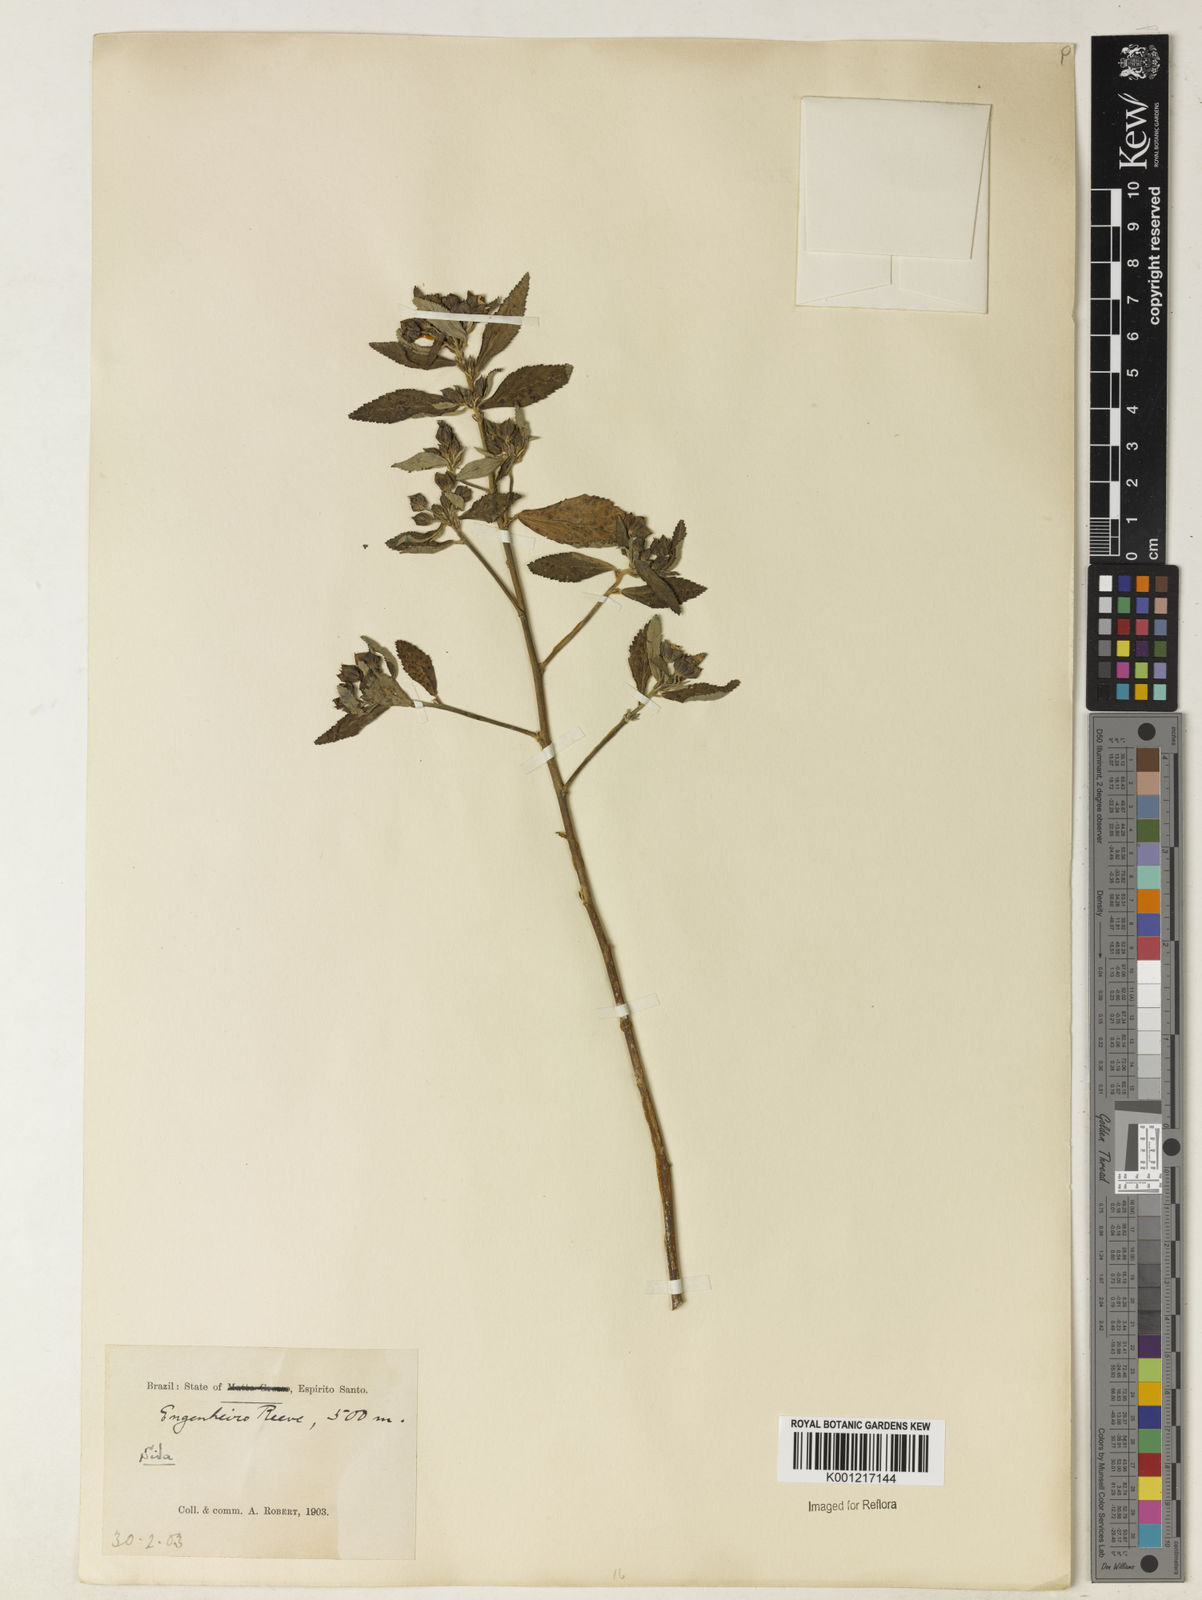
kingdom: Plantae
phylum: Tracheophyta
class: Magnoliopsida
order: Malvales
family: Malvaceae
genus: Sida
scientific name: Sida
